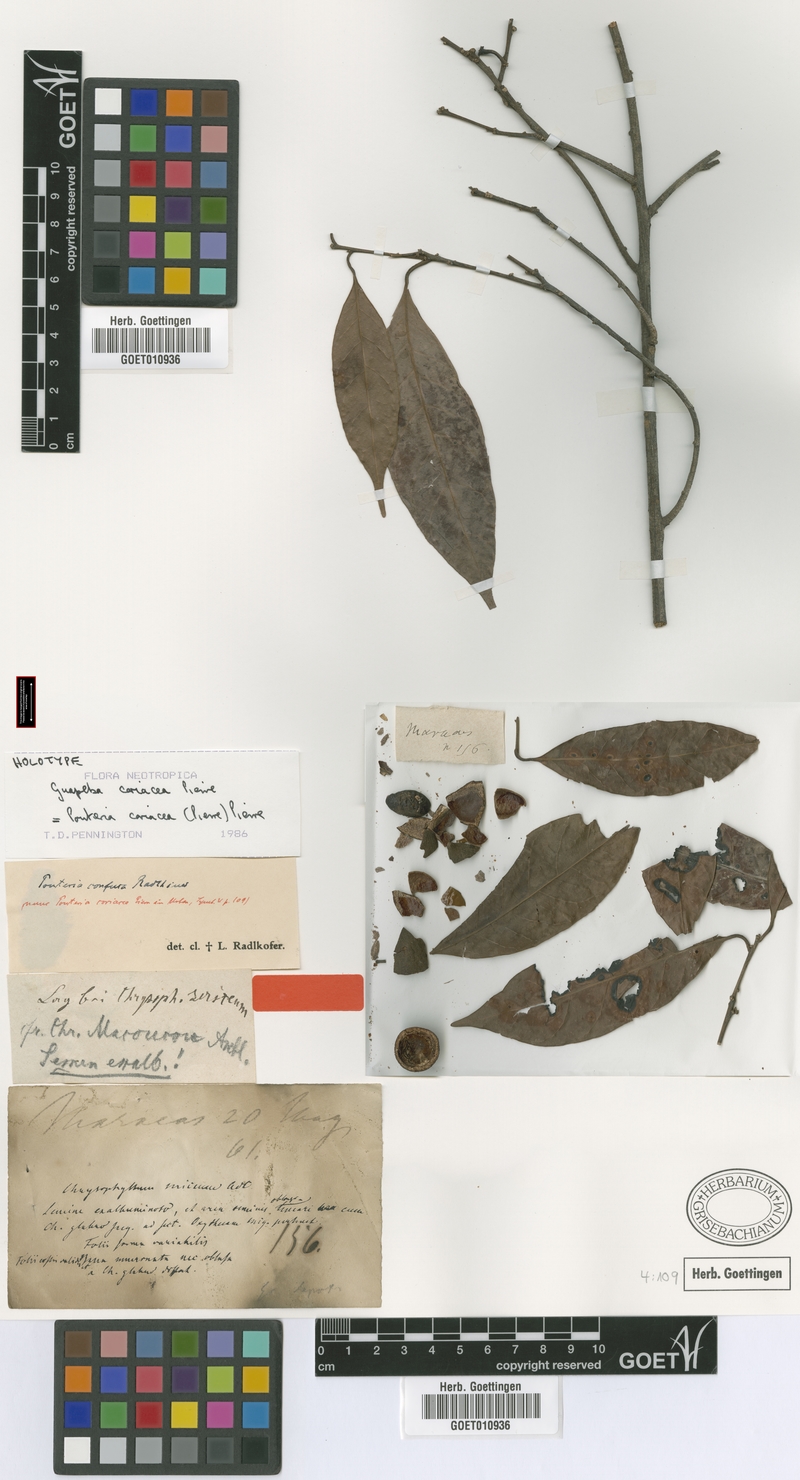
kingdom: Plantae
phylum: Tracheophyta
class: Magnoliopsida
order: Ericales
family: Sapotaceae
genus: Pouteria
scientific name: Pouteria coriacea
